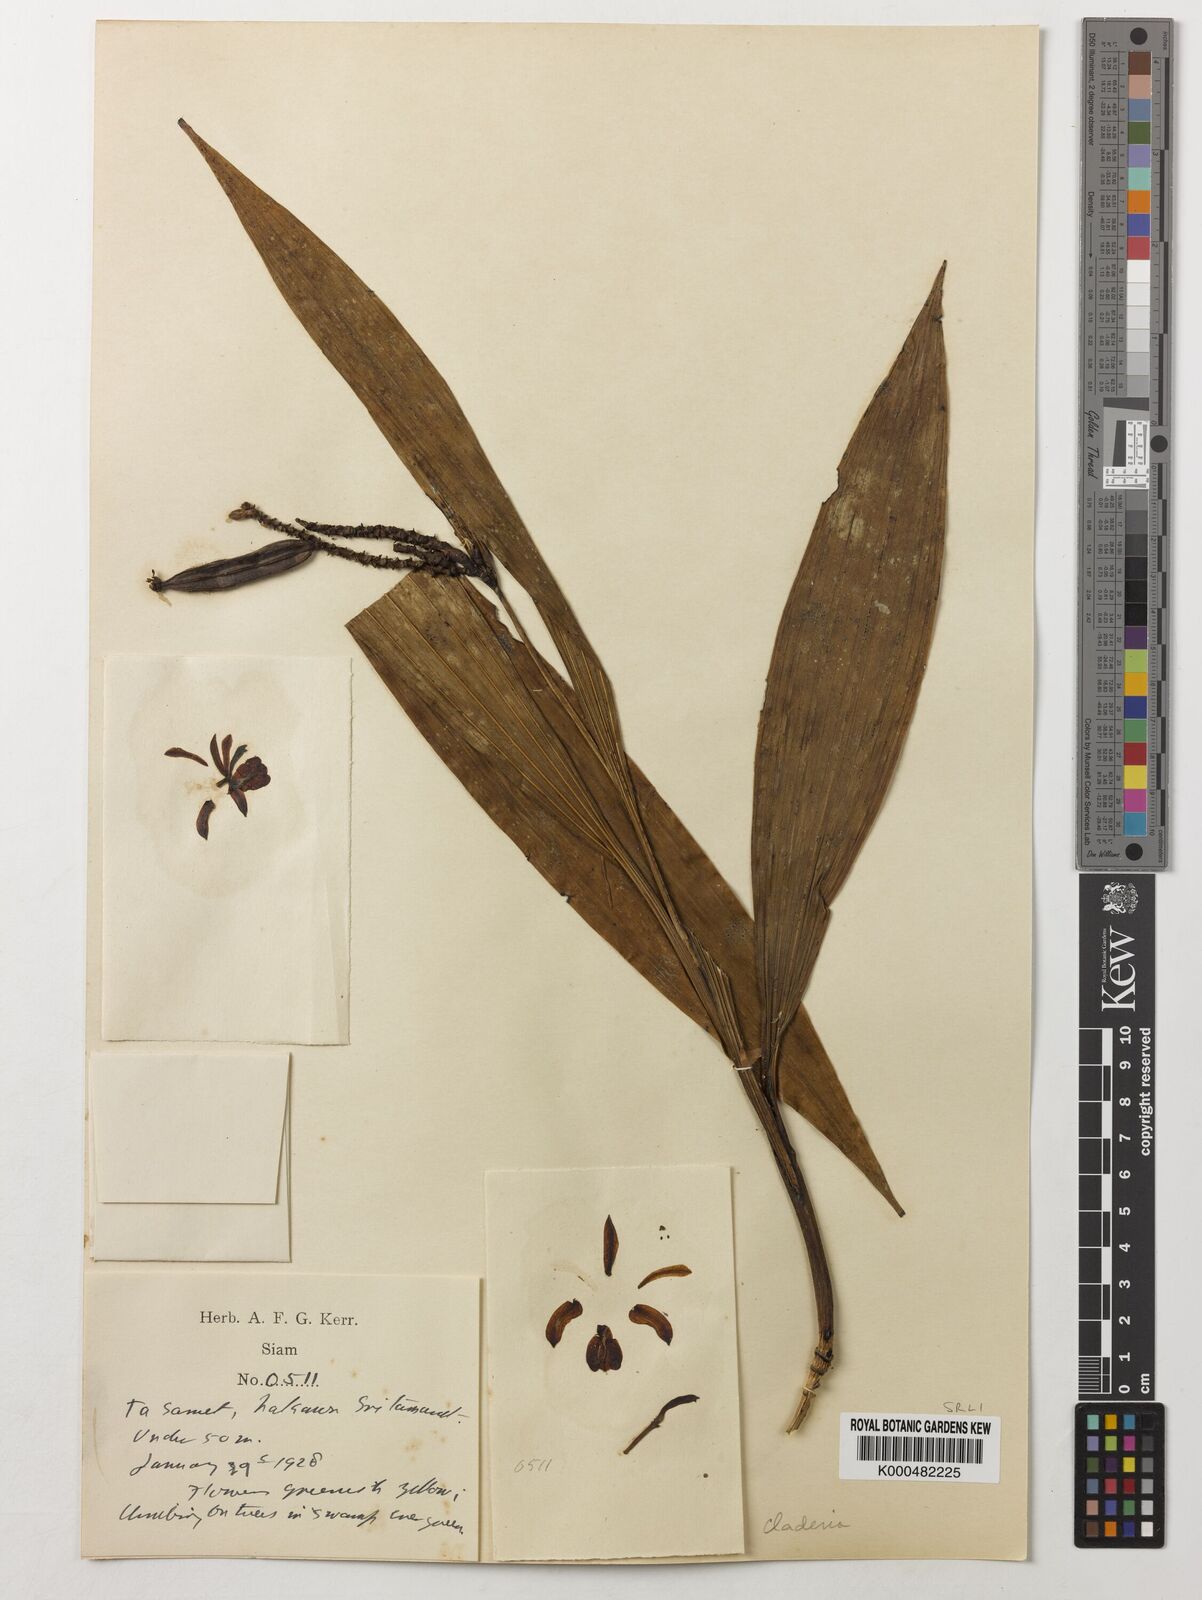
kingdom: Plantae
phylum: Tracheophyta
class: Liliopsida
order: Asparagales
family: Orchidaceae
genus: Claderia
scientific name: Claderia
